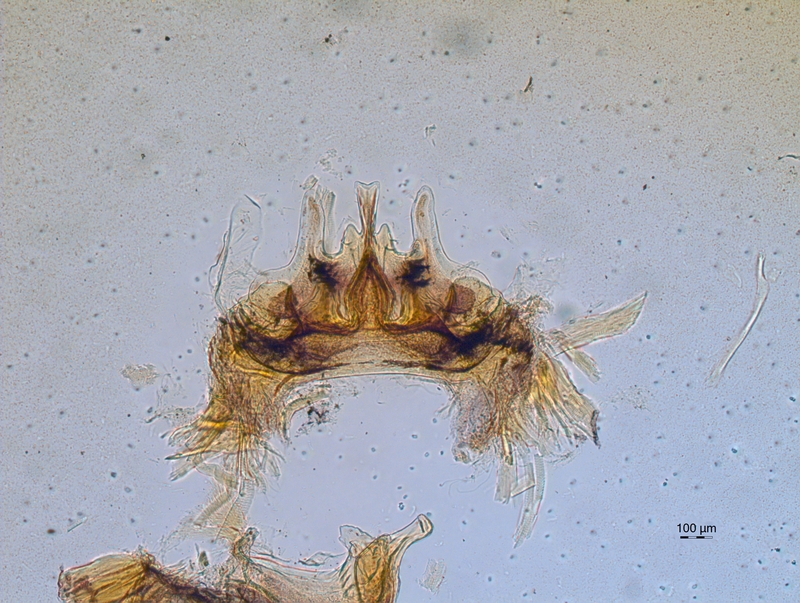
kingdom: Animalia
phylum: Arthropoda
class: Diplopoda
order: Chordeumatida
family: Craspedosomatidae
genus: Craspedosoma
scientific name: Craspedosoma rawlinsii
